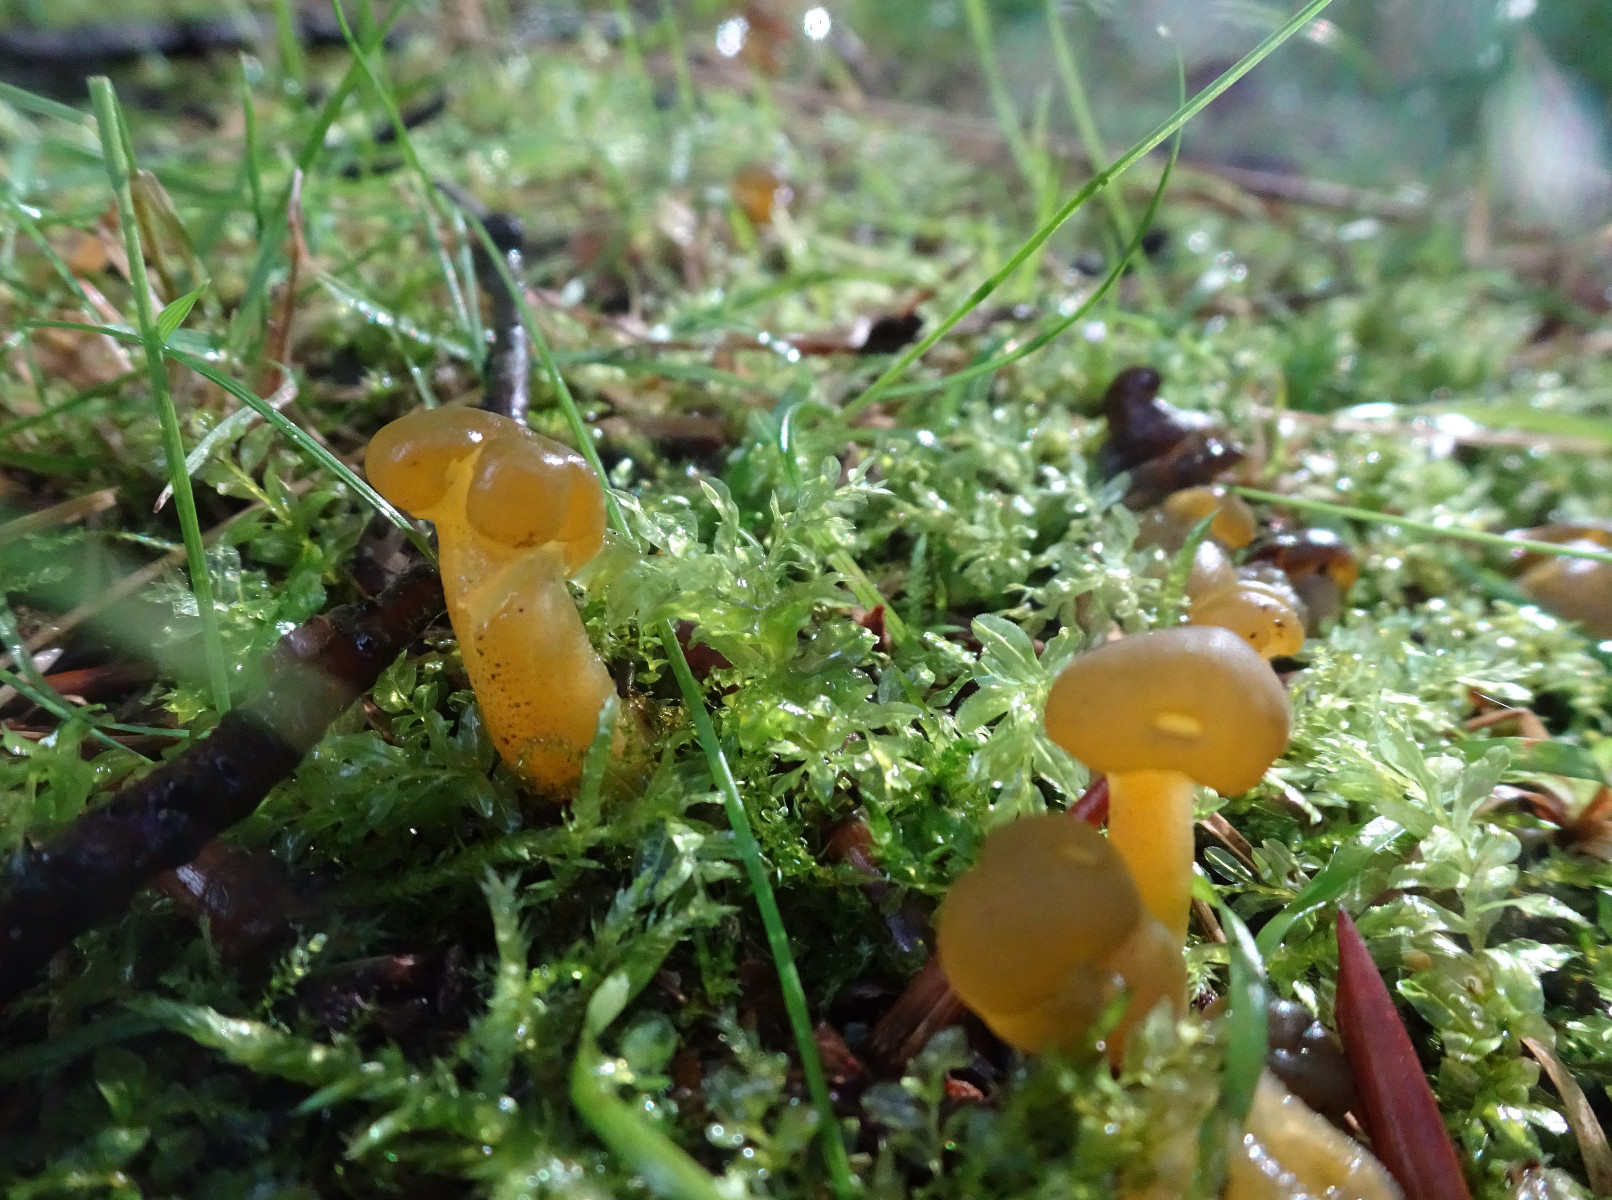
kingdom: Fungi
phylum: Ascomycota
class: Leotiomycetes
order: Leotiales
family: Leotiaceae
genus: Leotia
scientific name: Leotia lubrica
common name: ravsvamp
